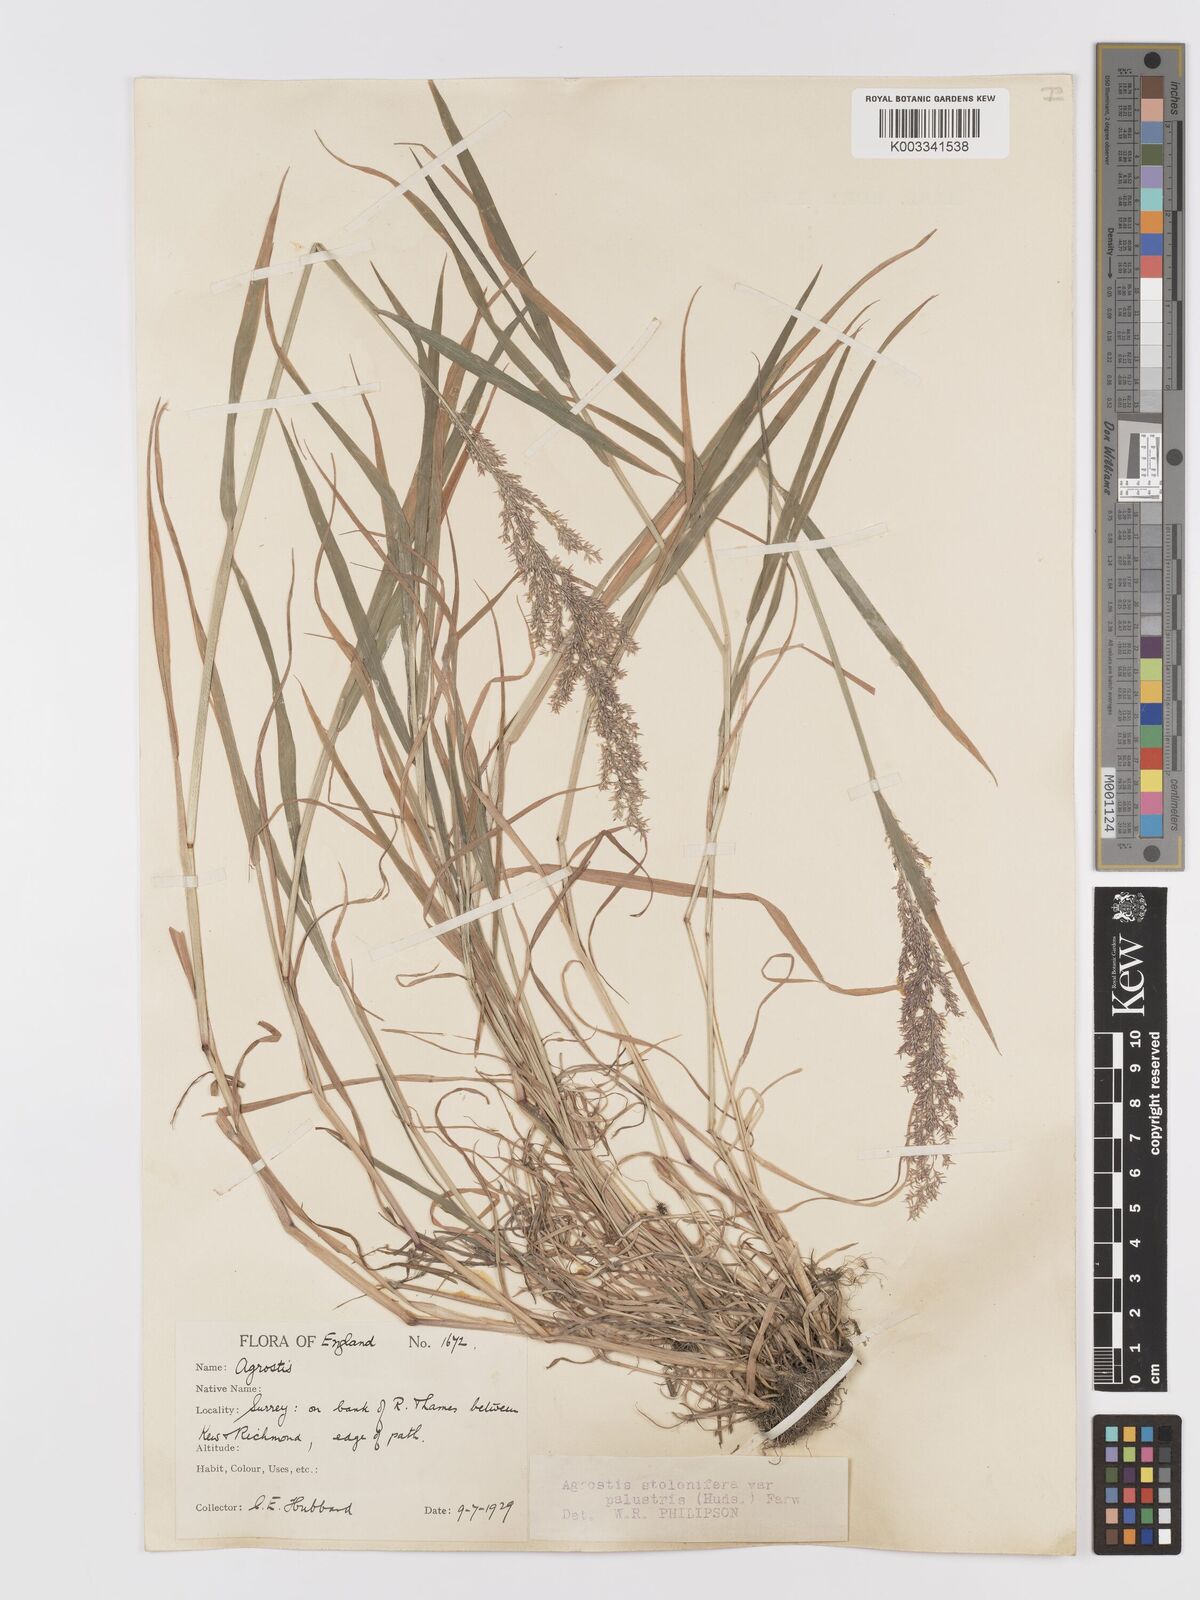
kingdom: Plantae
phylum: Tracheophyta
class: Liliopsida
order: Poales
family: Poaceae
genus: Agrostis
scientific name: Agrostis stolonifera
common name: Creeping bentgrass
